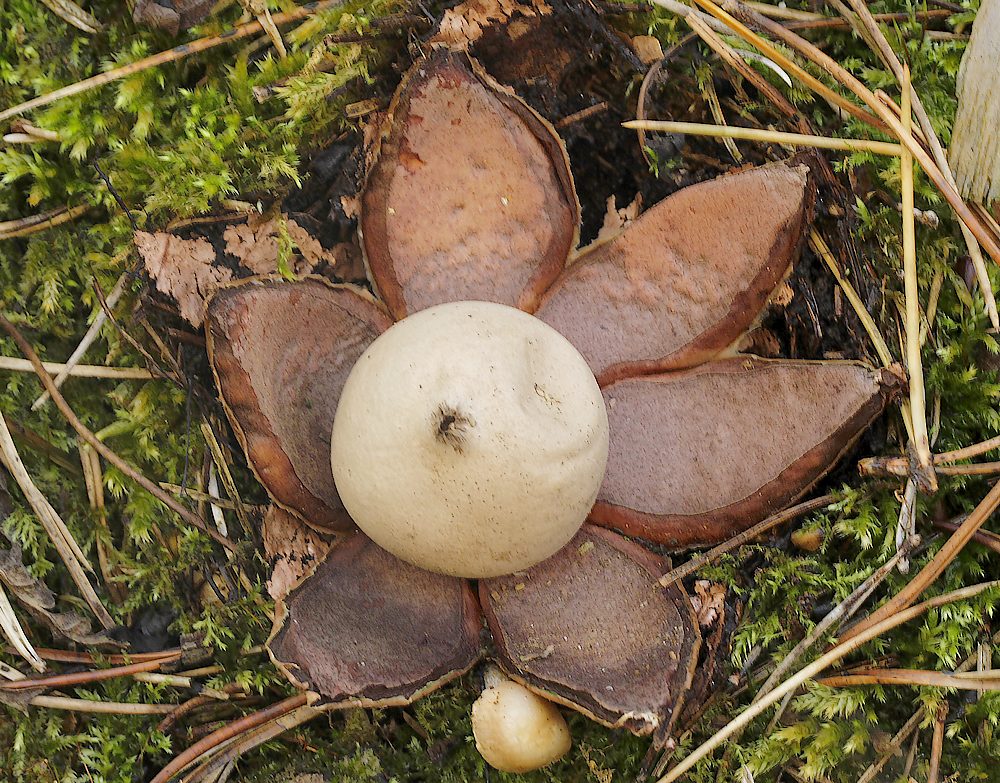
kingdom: Fungi
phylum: Basidiomycota
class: Agaricomycetes
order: Geastrales
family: Geastraceae
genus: Geastrum
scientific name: Geastrum rufescens
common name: kødfarvet stjernebold
